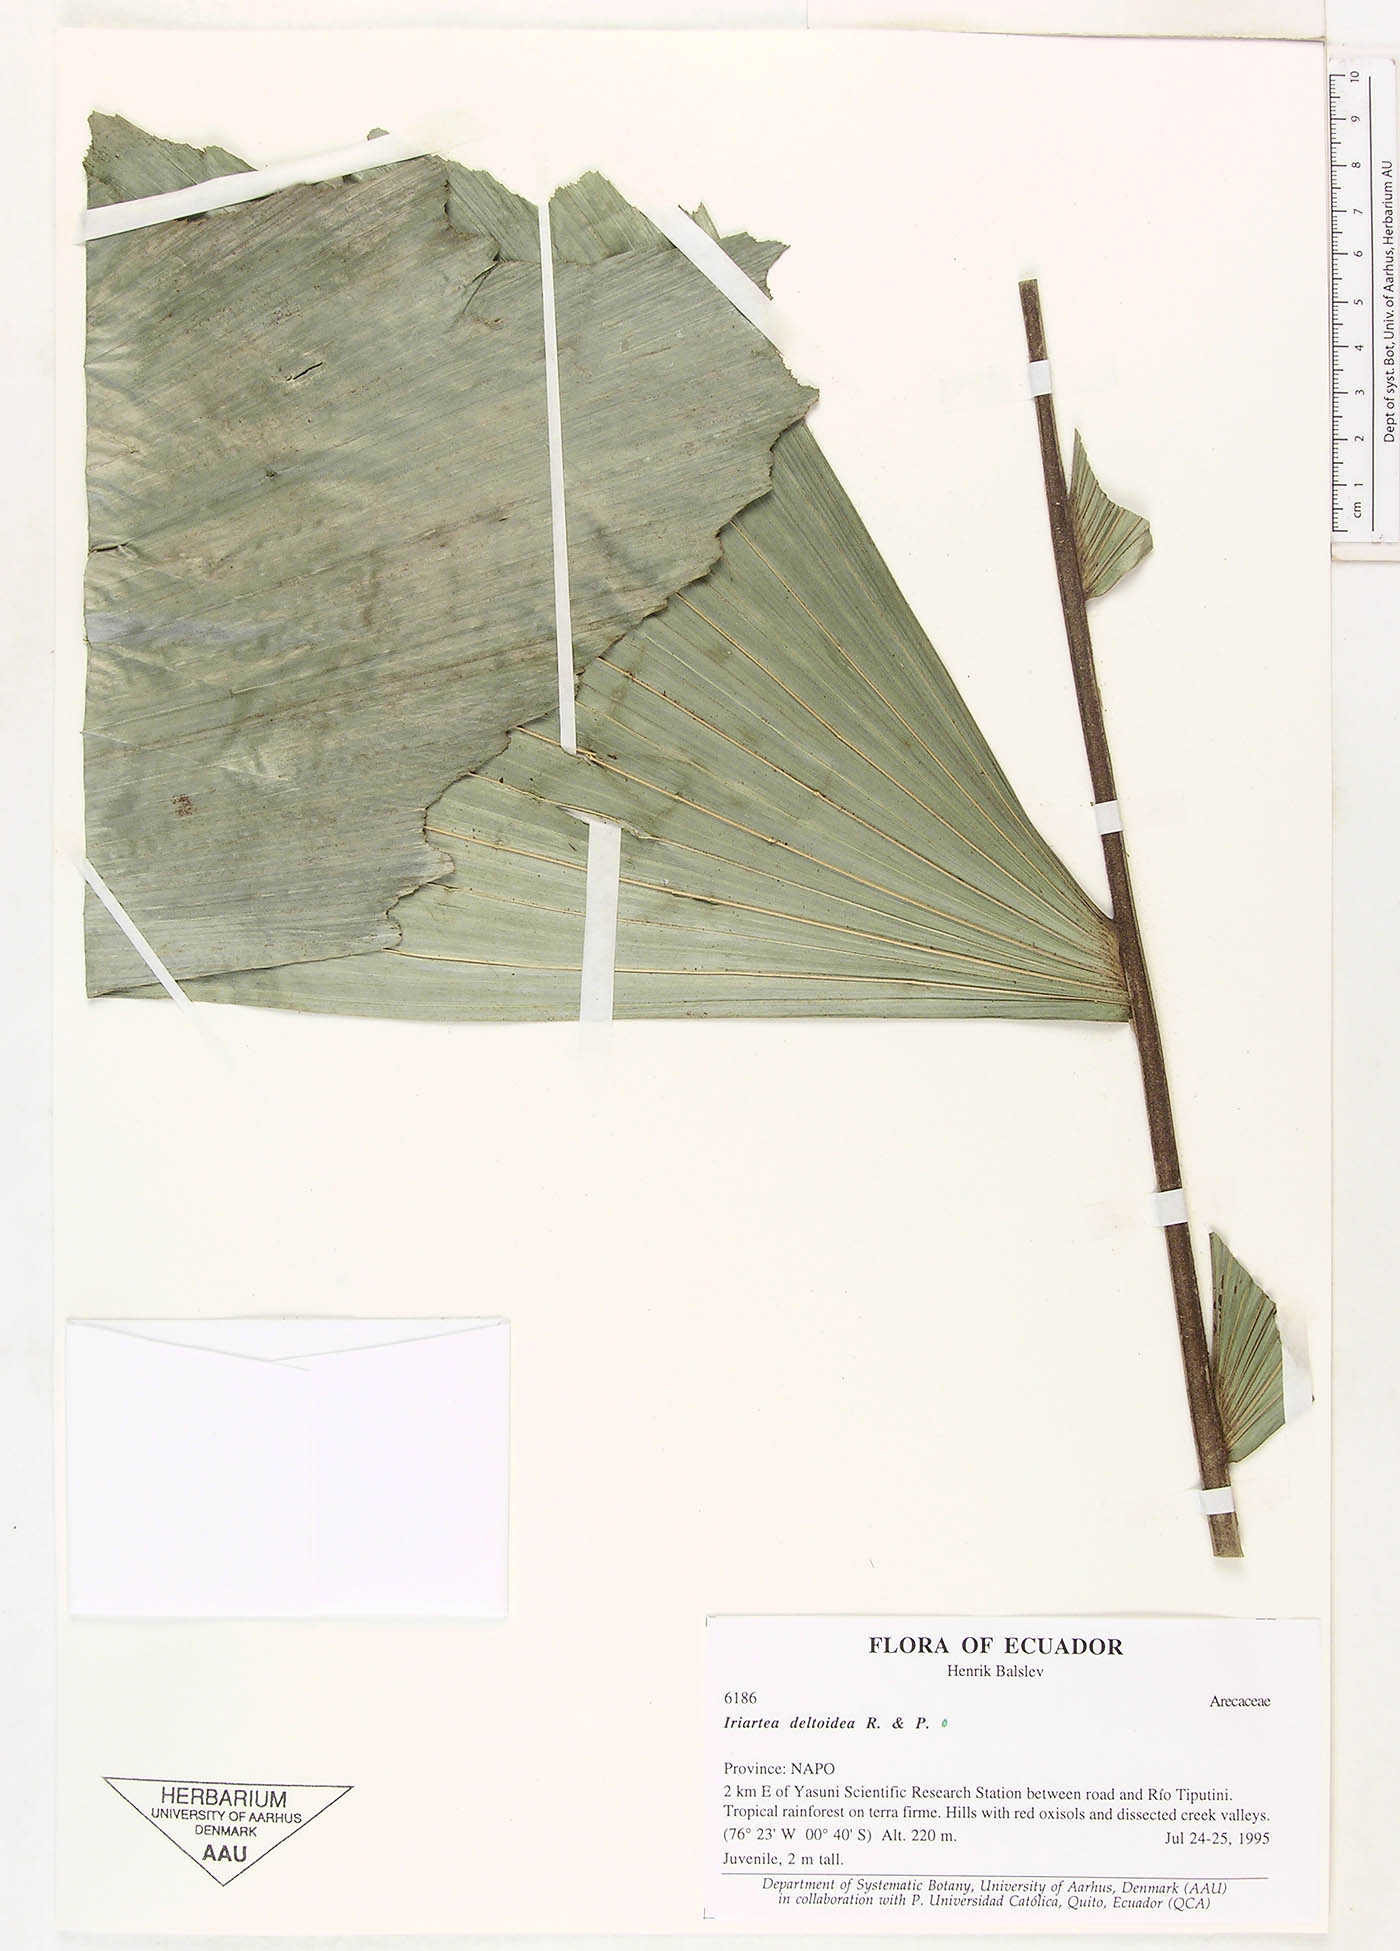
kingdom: Plantae
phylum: Tracheophyta
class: Liliopsida
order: Arecales
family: Arecaceae
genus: Iriartea
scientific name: Iriartea deltoidea
